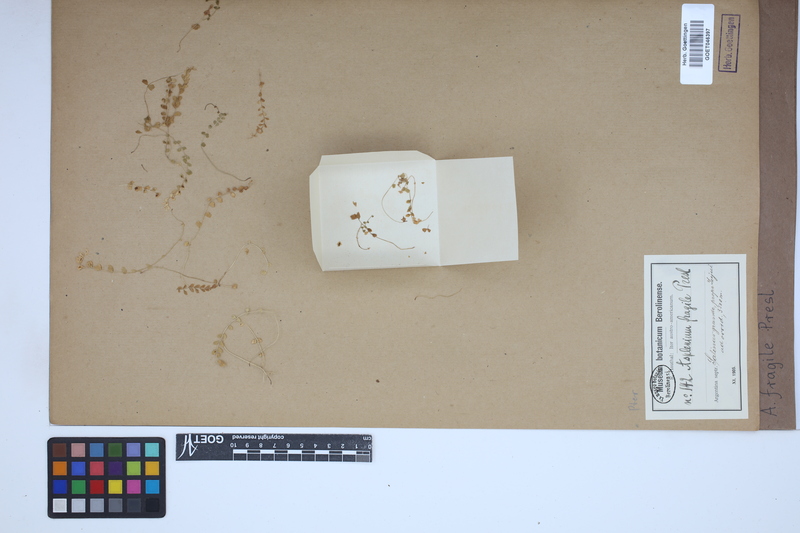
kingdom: Plantae
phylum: Tracheophyta
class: Polypodiopsida
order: Polypodiales
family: Aspleniaceae
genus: Asplenium
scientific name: Asplenium peruvianum
